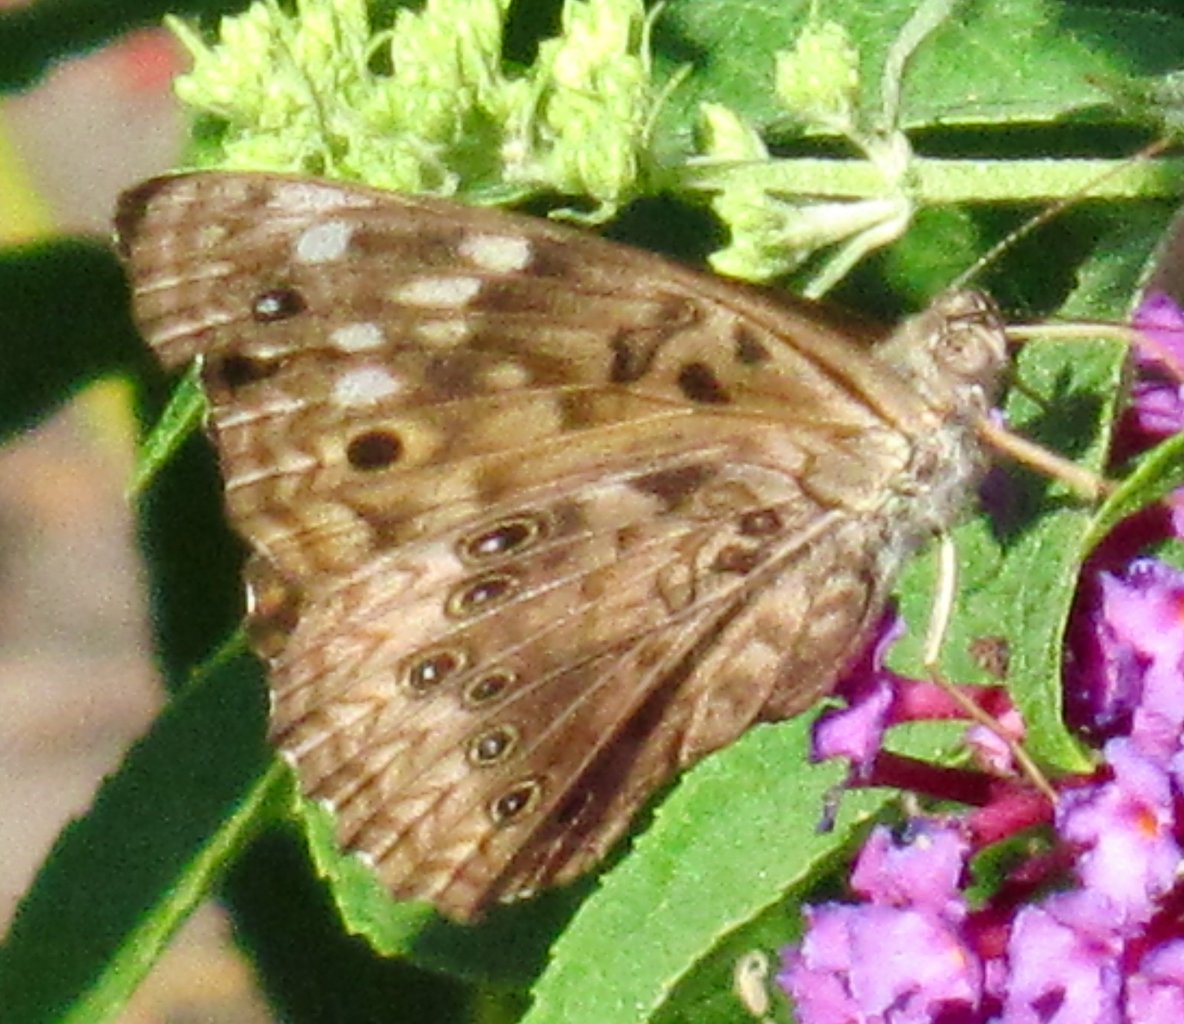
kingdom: Animalia
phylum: Arthropoda
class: Insecta
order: Lepidoptera
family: Nymphalidae
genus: Asterocampa
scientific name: Asterocampa celtis
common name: Hackberry Emperor
